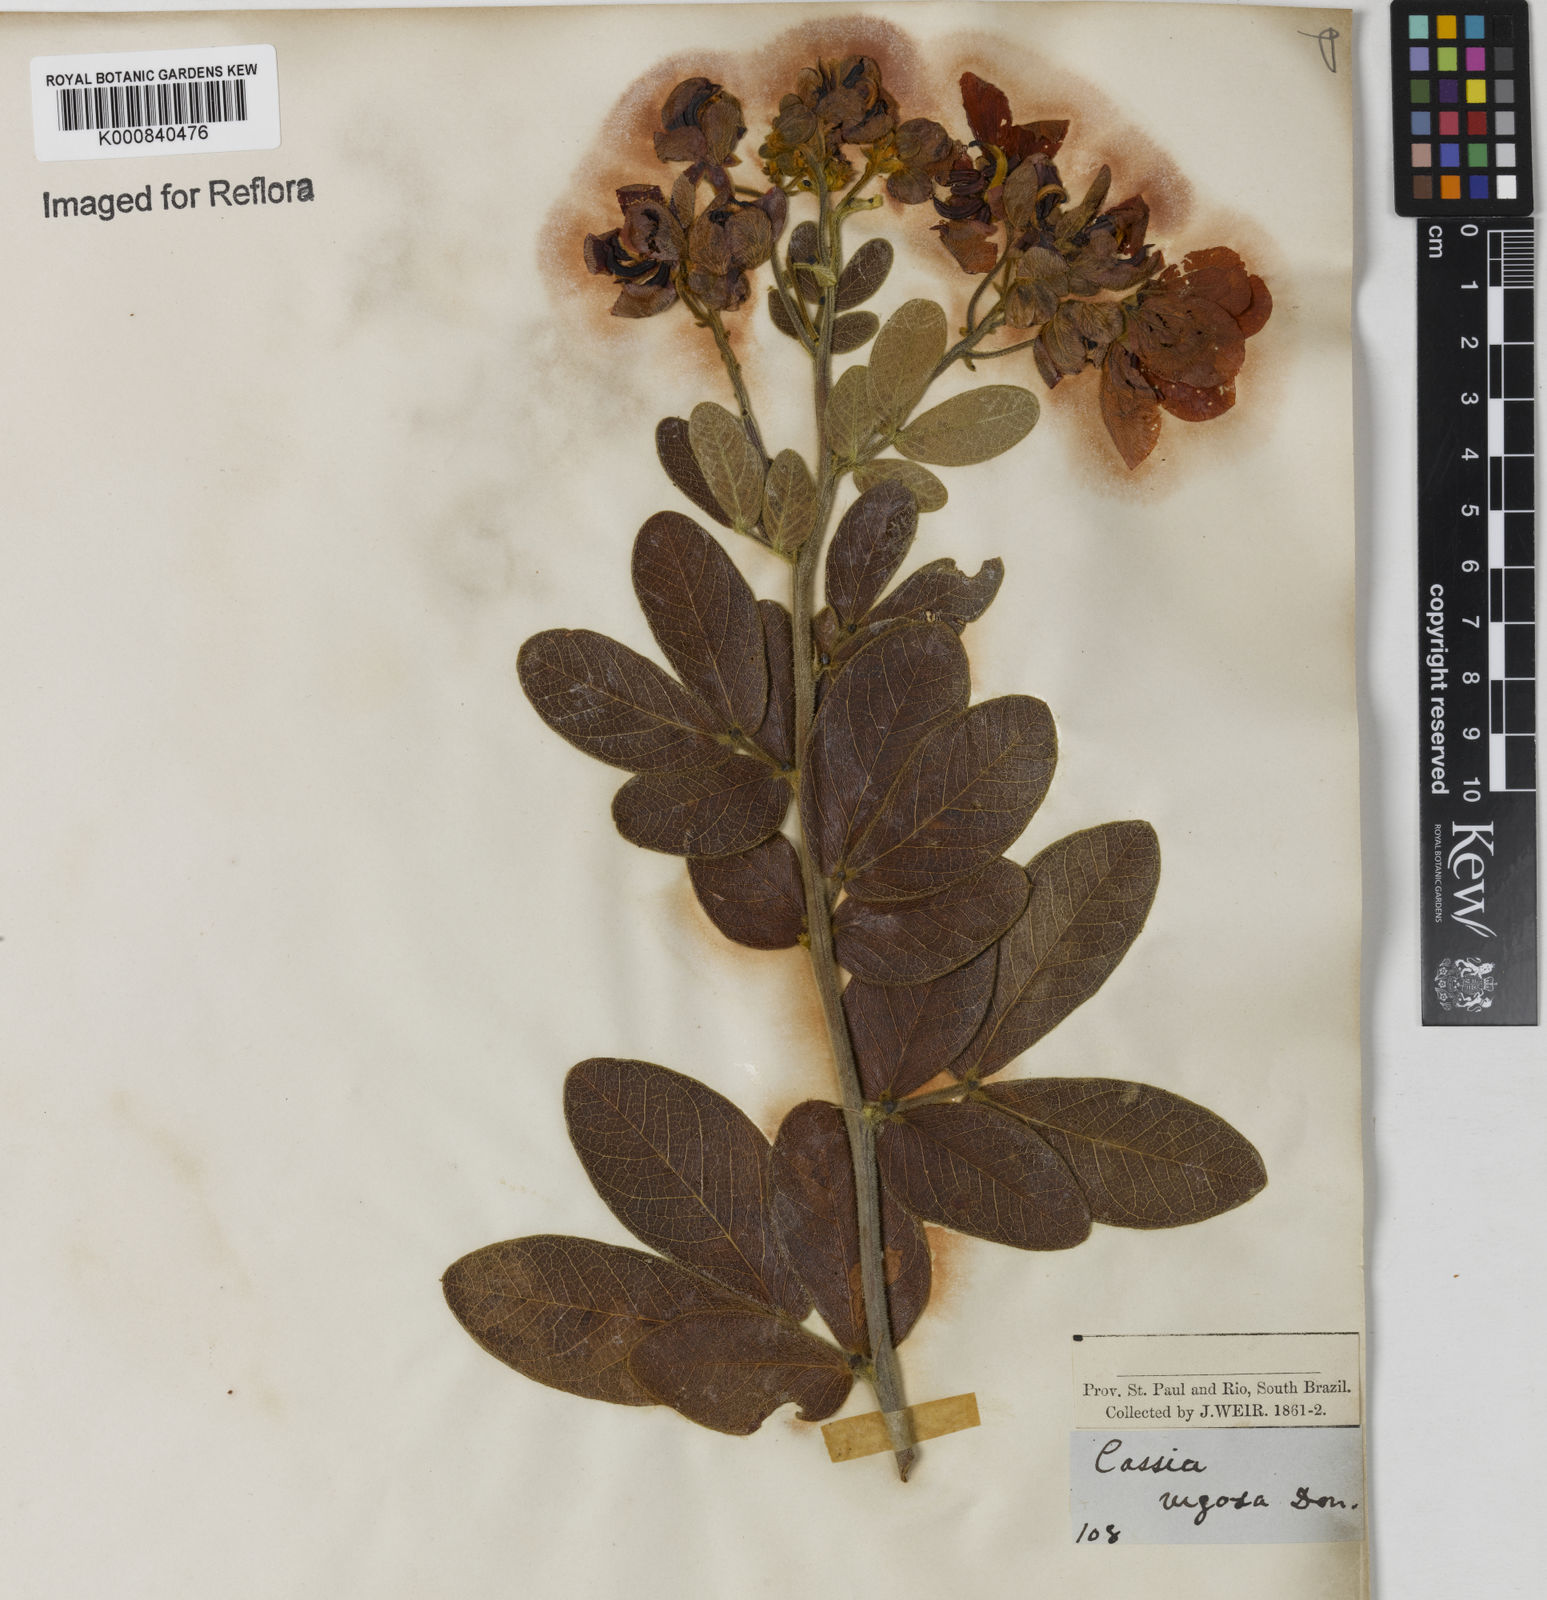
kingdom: Plantae
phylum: Tracheophyta
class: Magnoliopsida
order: Fabales
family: Fabaceae
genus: Senna
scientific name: Senna rugosa
